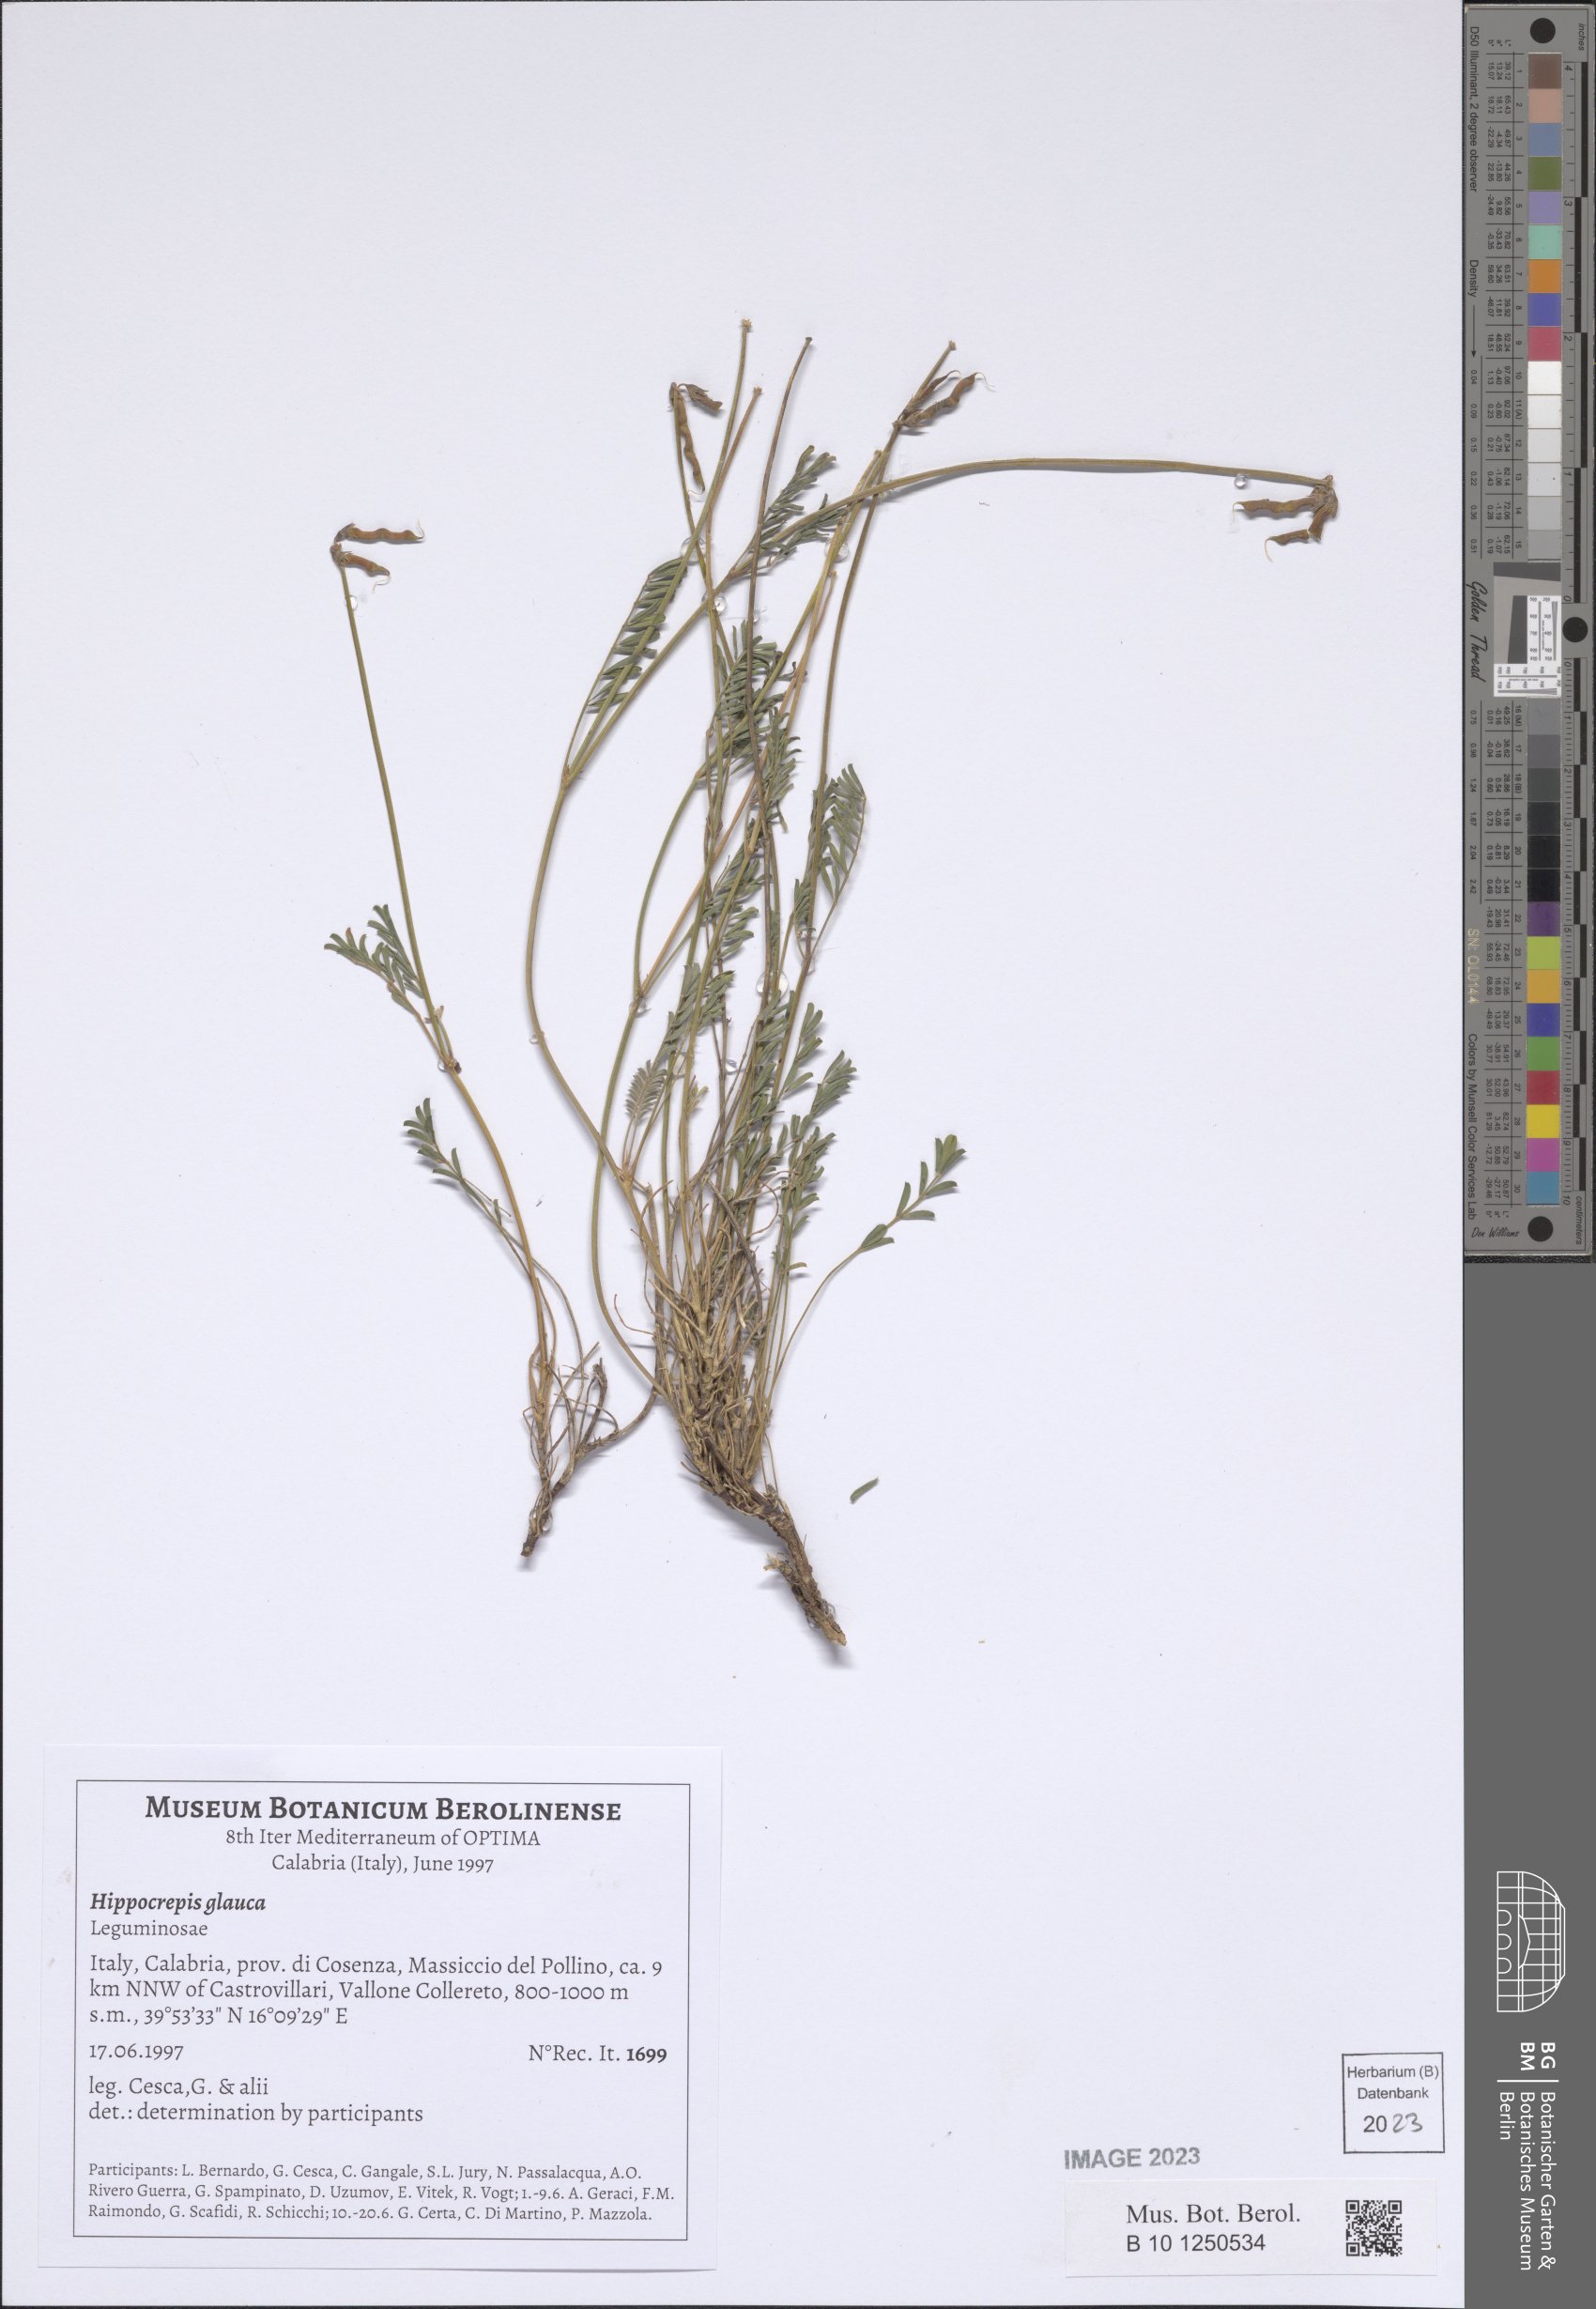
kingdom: Plantae
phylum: Tracheophyta
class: Magnoliopsida
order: Fabales
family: Fabaceae
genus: Hippocrepis
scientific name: Hippocrepis glauca
